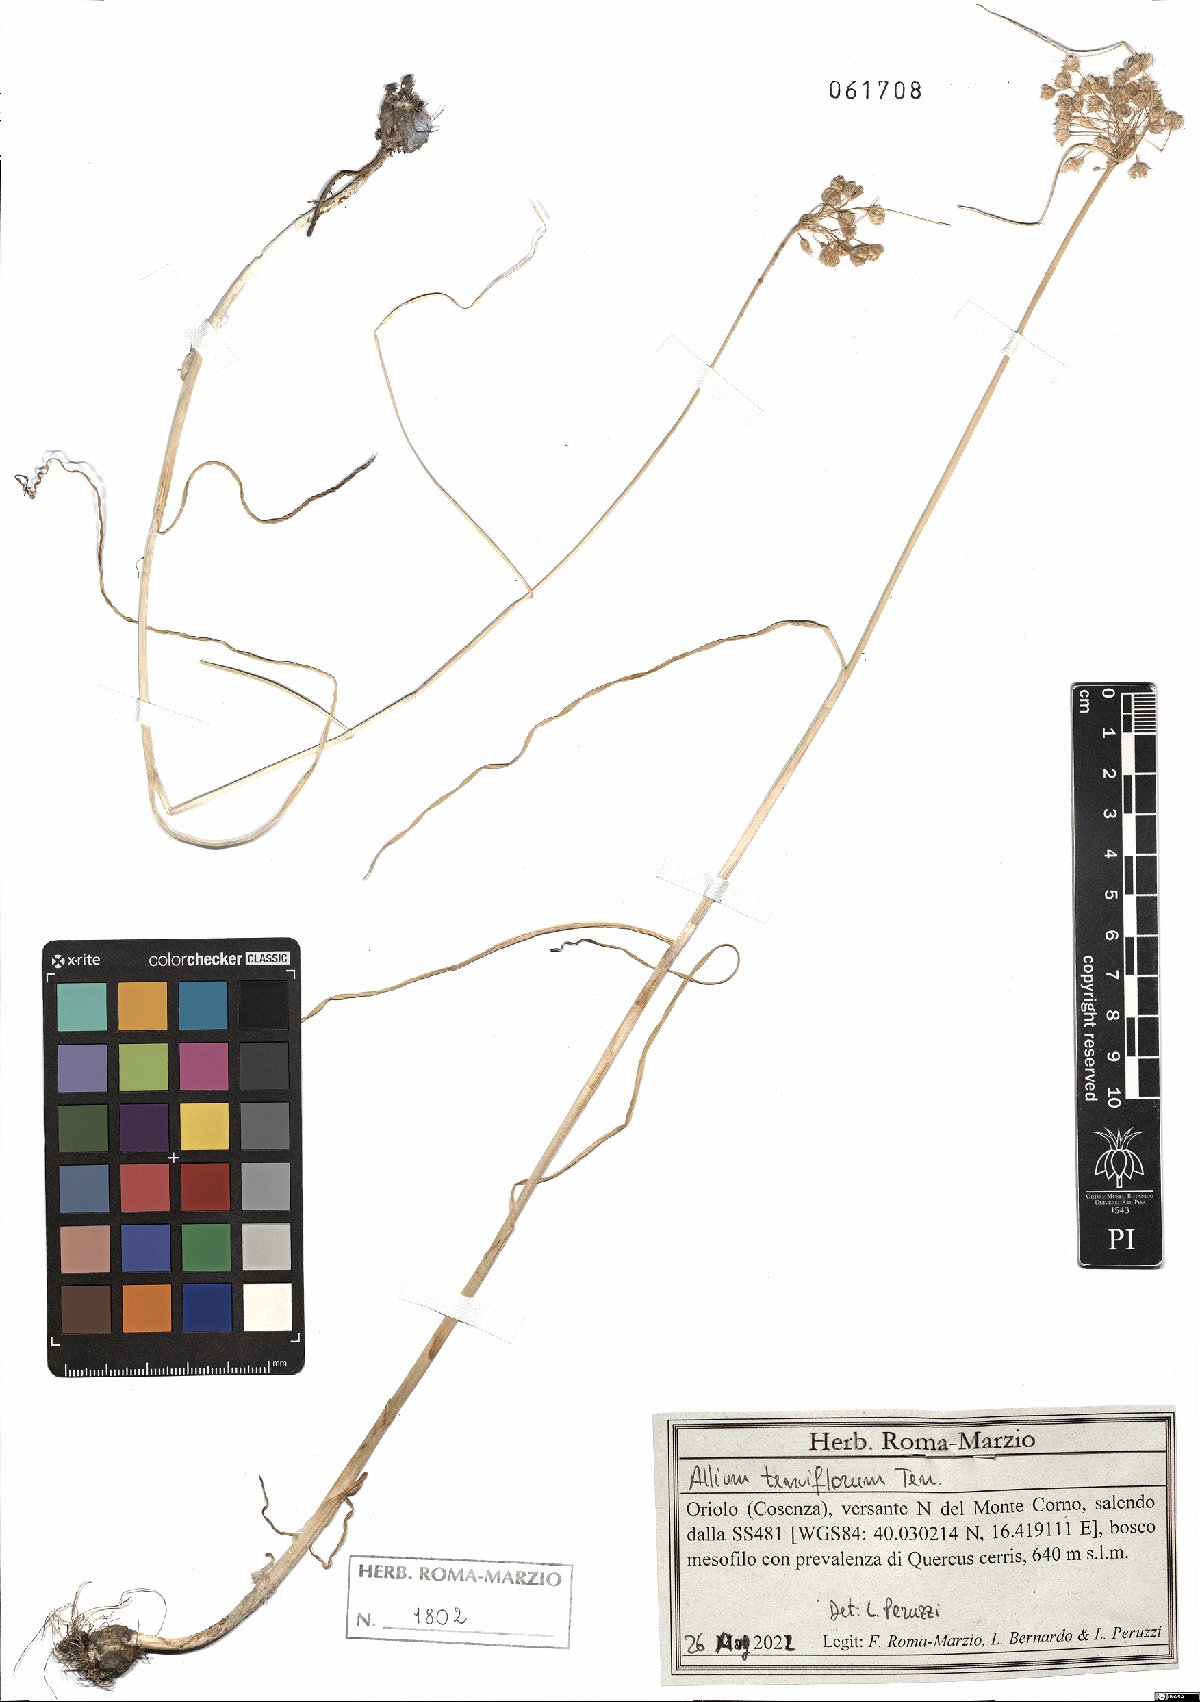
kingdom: Plantae
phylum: Tracheophyta
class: Liliopsida
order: Asparagales
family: Amaryllidaceae
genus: Allium
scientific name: Allium tenuiflorum
